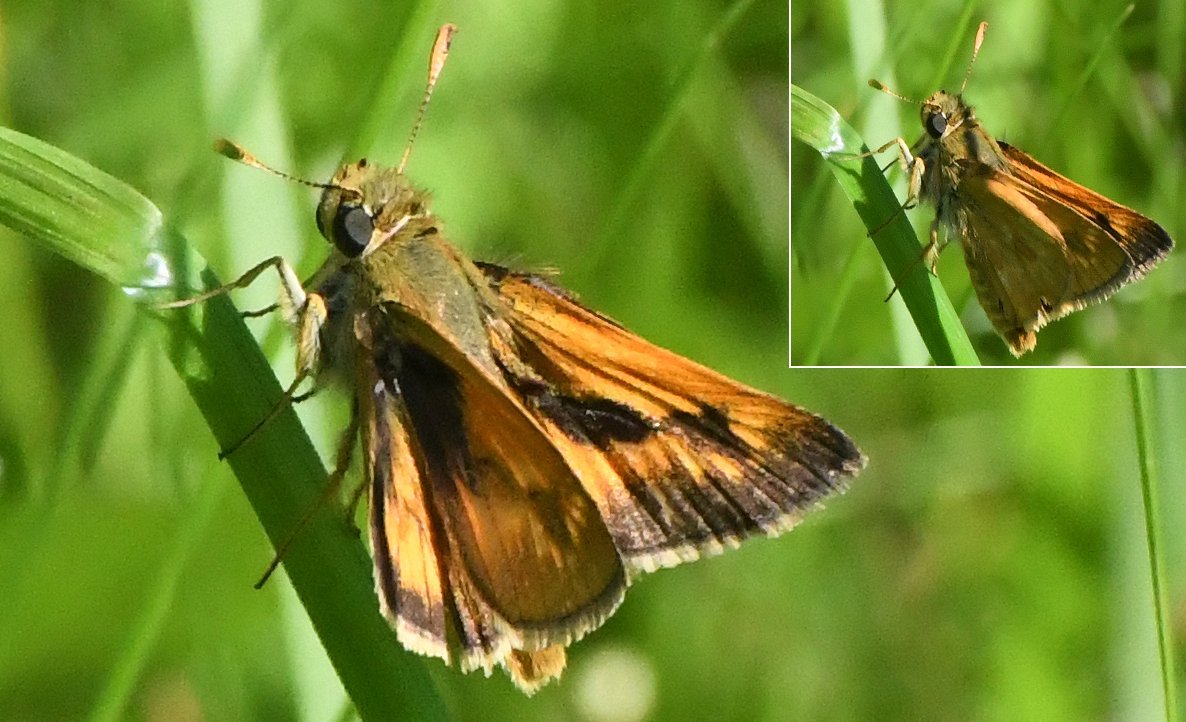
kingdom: Animalia
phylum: Arthropoda
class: Insecta
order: Lepidoptera
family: Hesperiidae
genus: Polites
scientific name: Polites
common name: Long Dash Skipper
